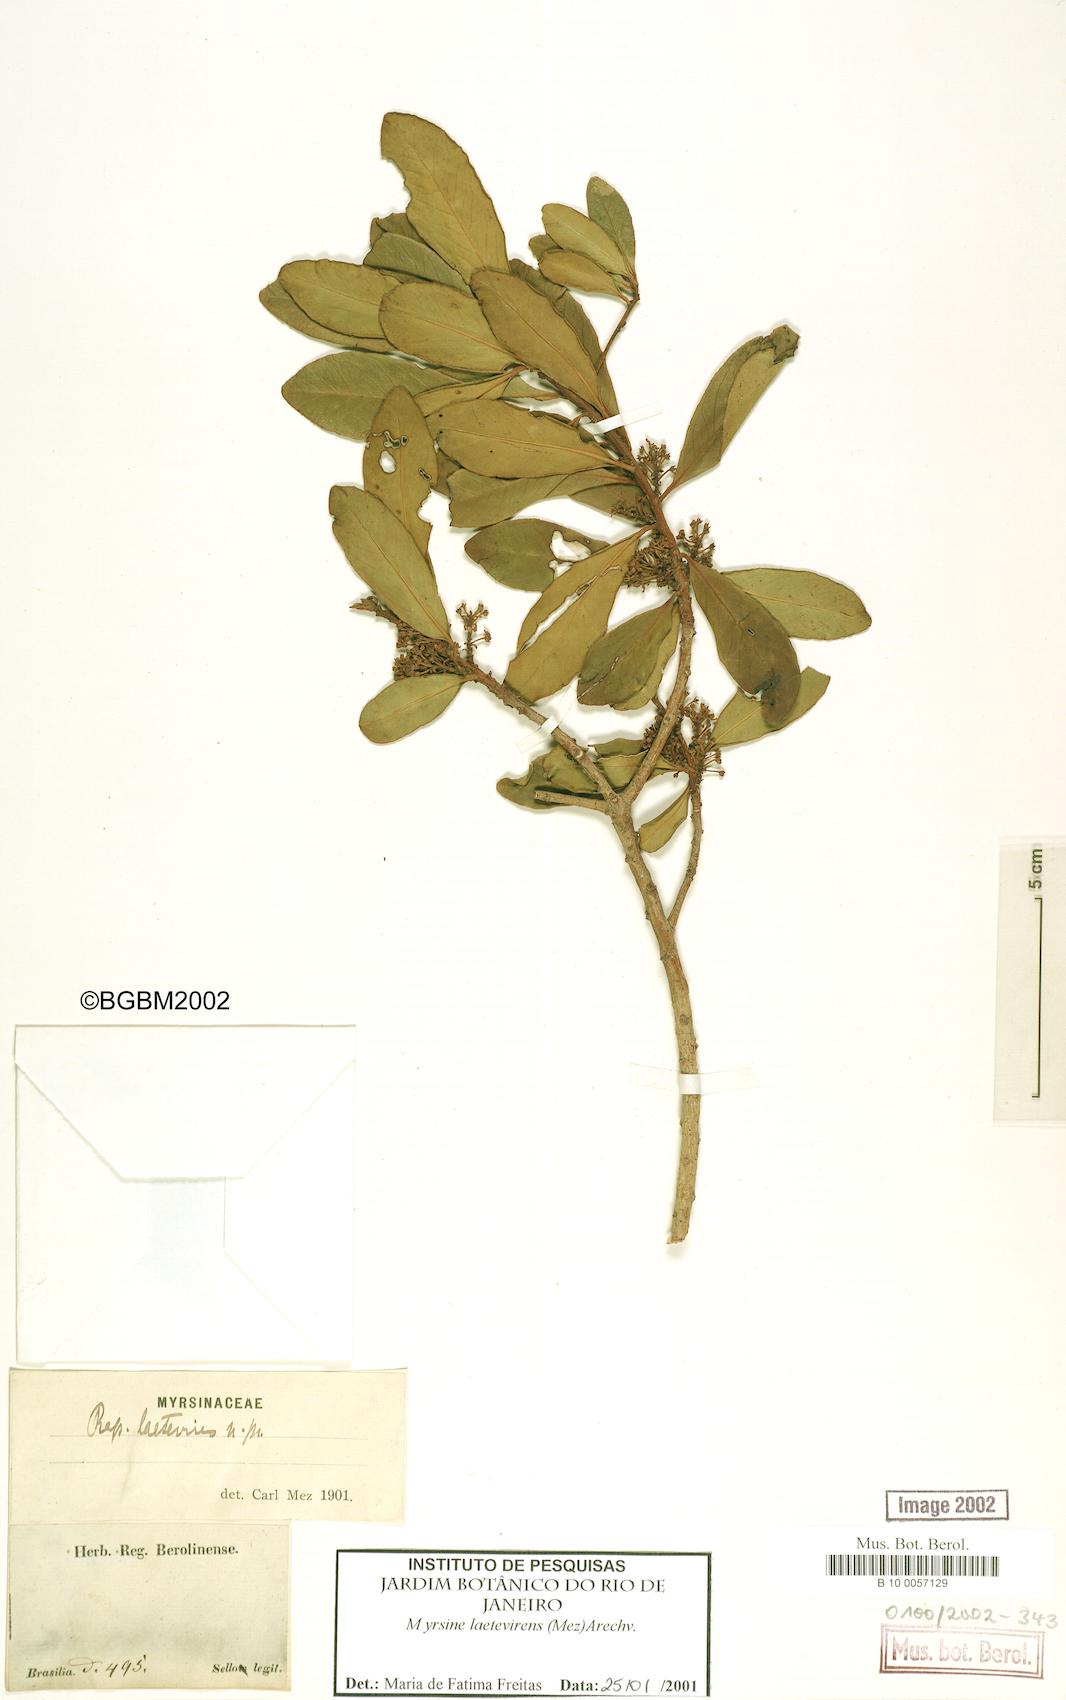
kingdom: Plantae
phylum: Tracheophyta
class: Magnoliopsida
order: Ericales
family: Primulaceae
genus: Myrsine
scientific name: Myrsine laetevirens
